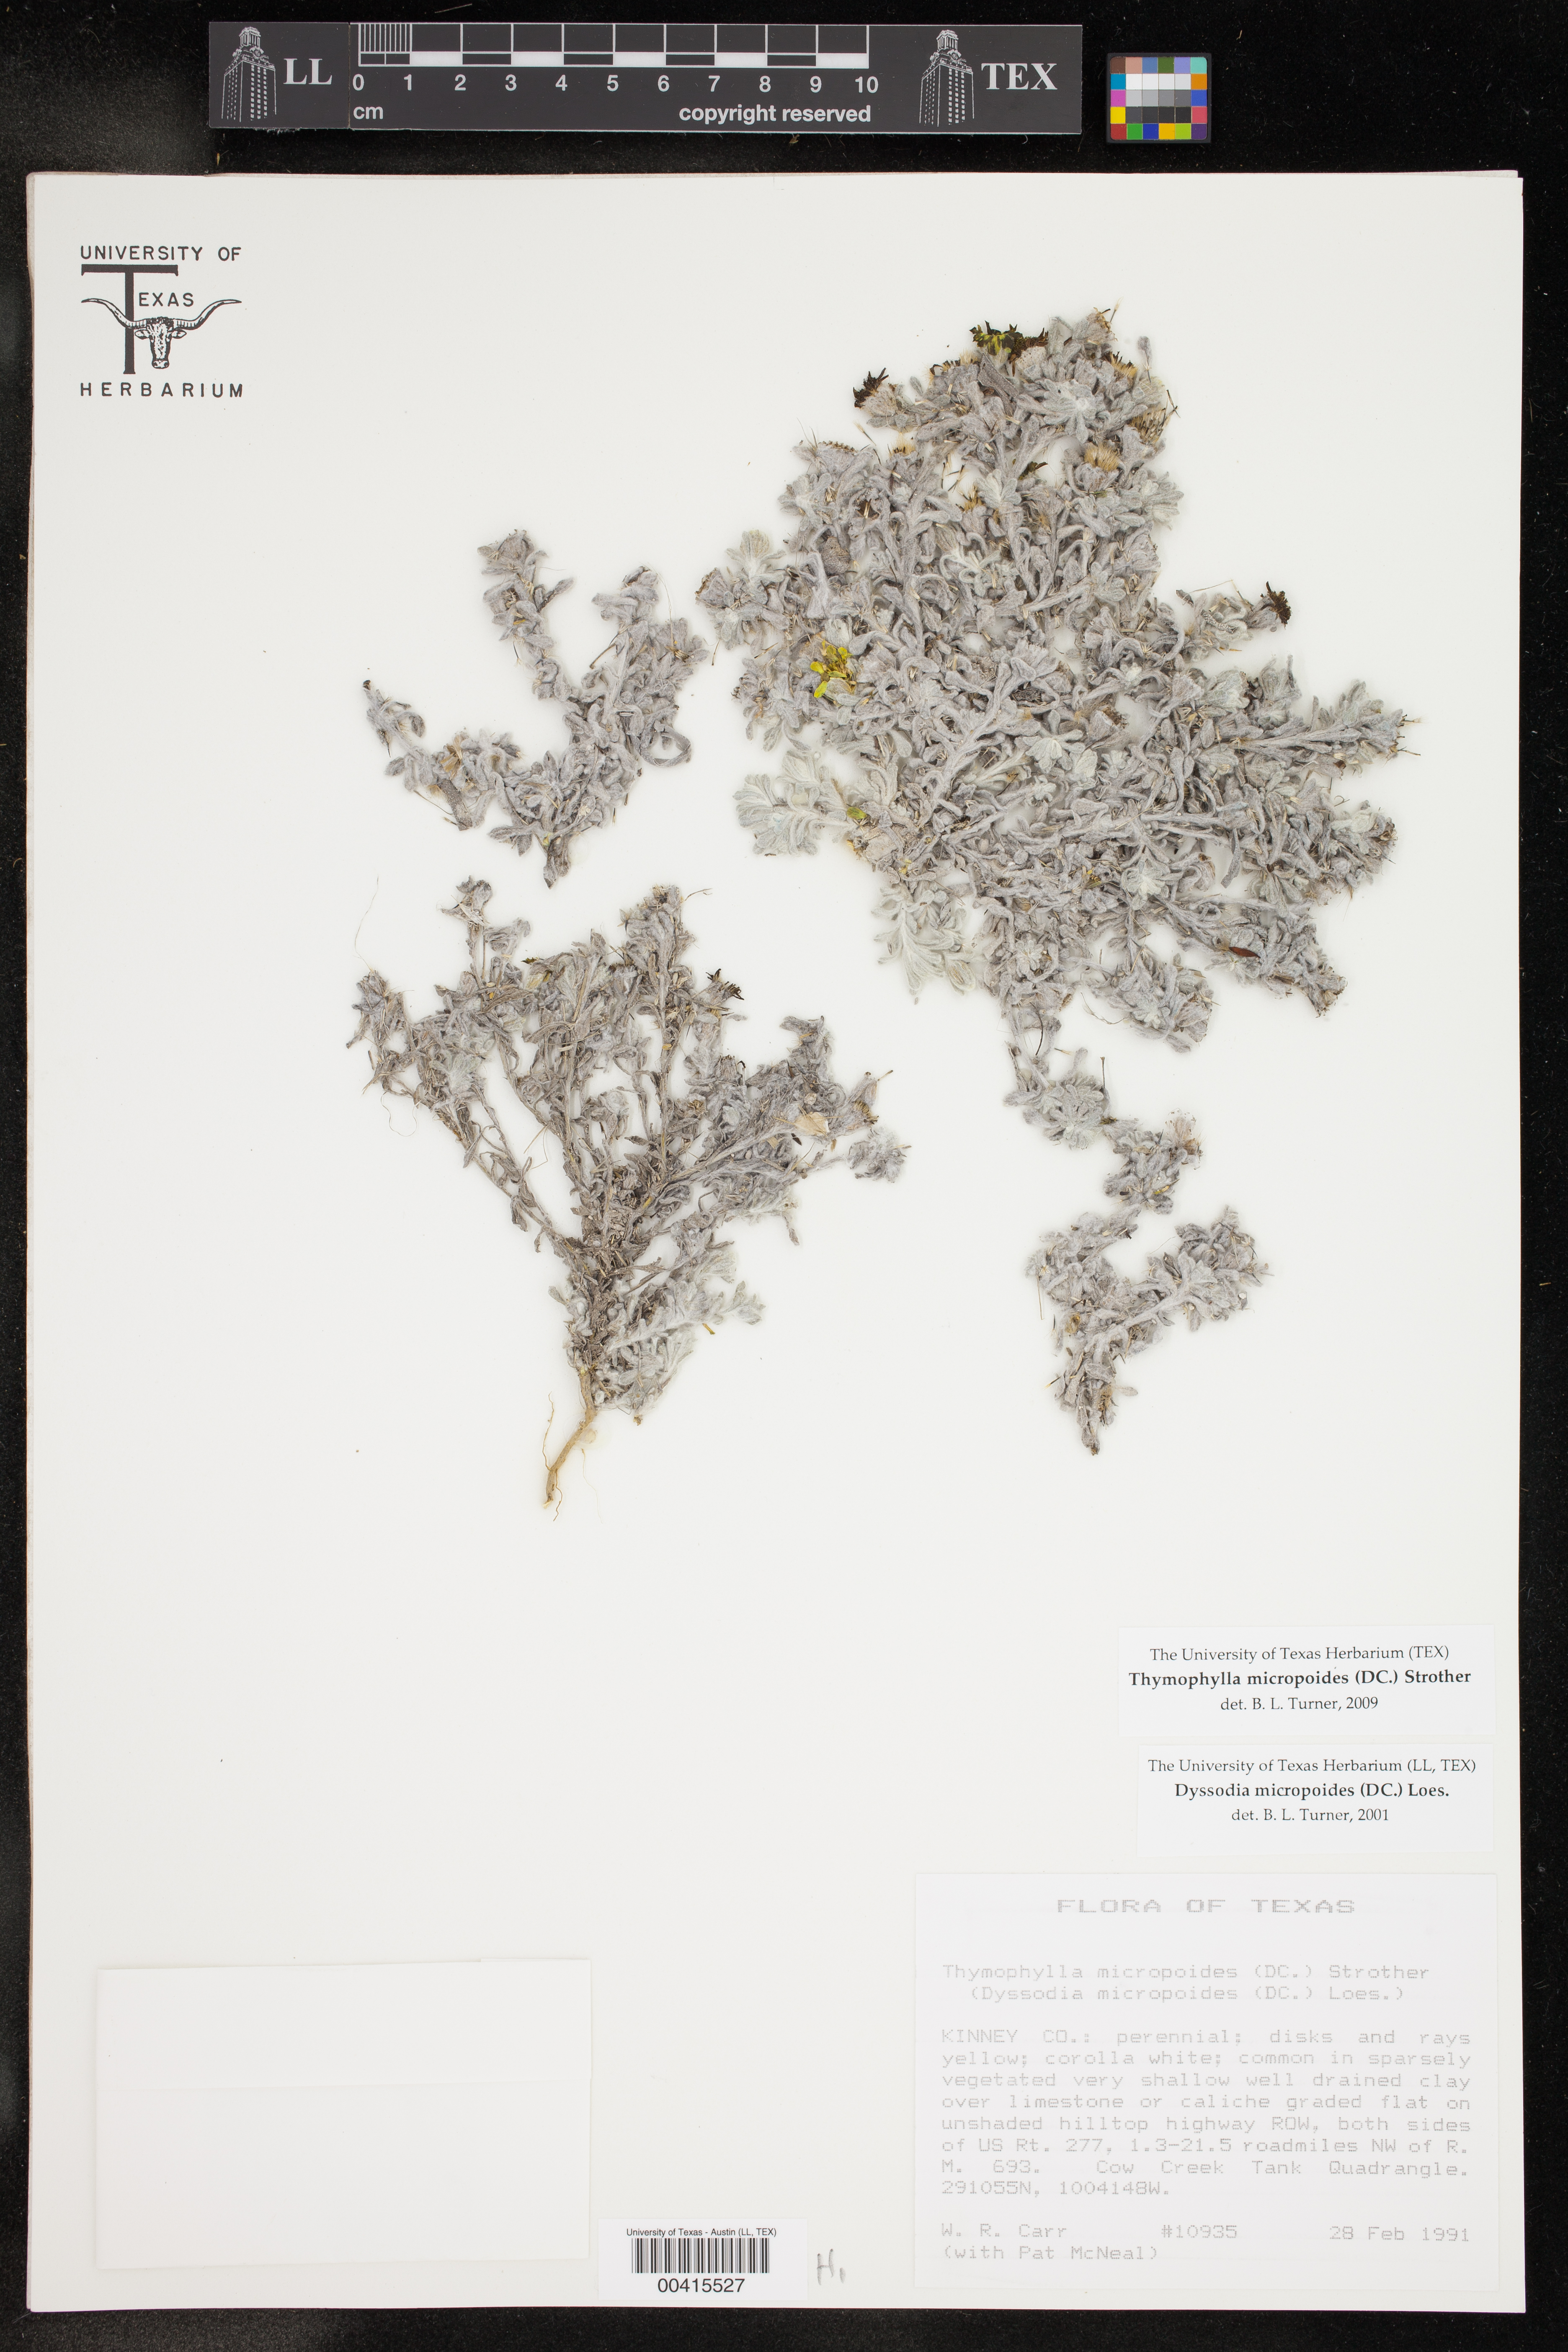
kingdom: Plantae
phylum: Tracheophyta
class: Magnoliopsida
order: Asterales
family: Asteraceae
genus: Thymophylla
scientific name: Thymophylla micropoides
